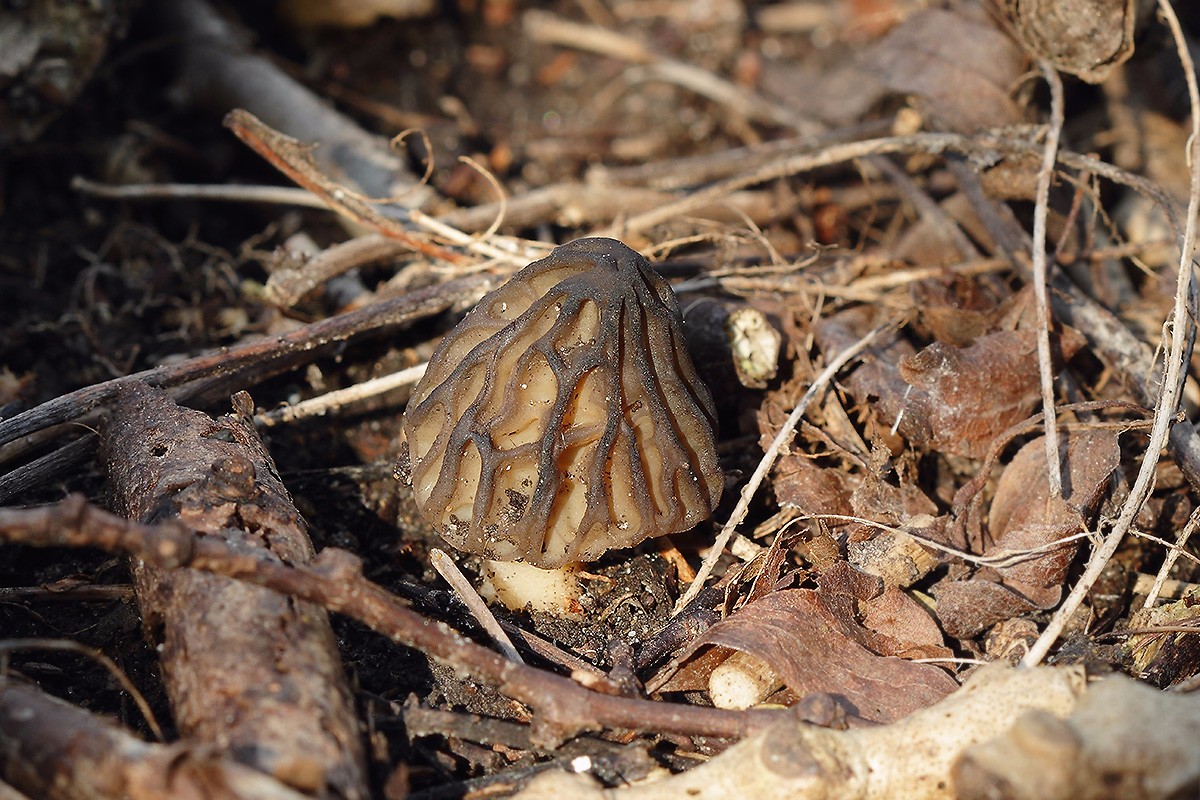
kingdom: Fungi
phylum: Ascomycota
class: Pezizomycetes
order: Pezizales
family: Morchellaceae
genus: Morchella
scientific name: Morchella semilibera
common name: hætte-morkel
